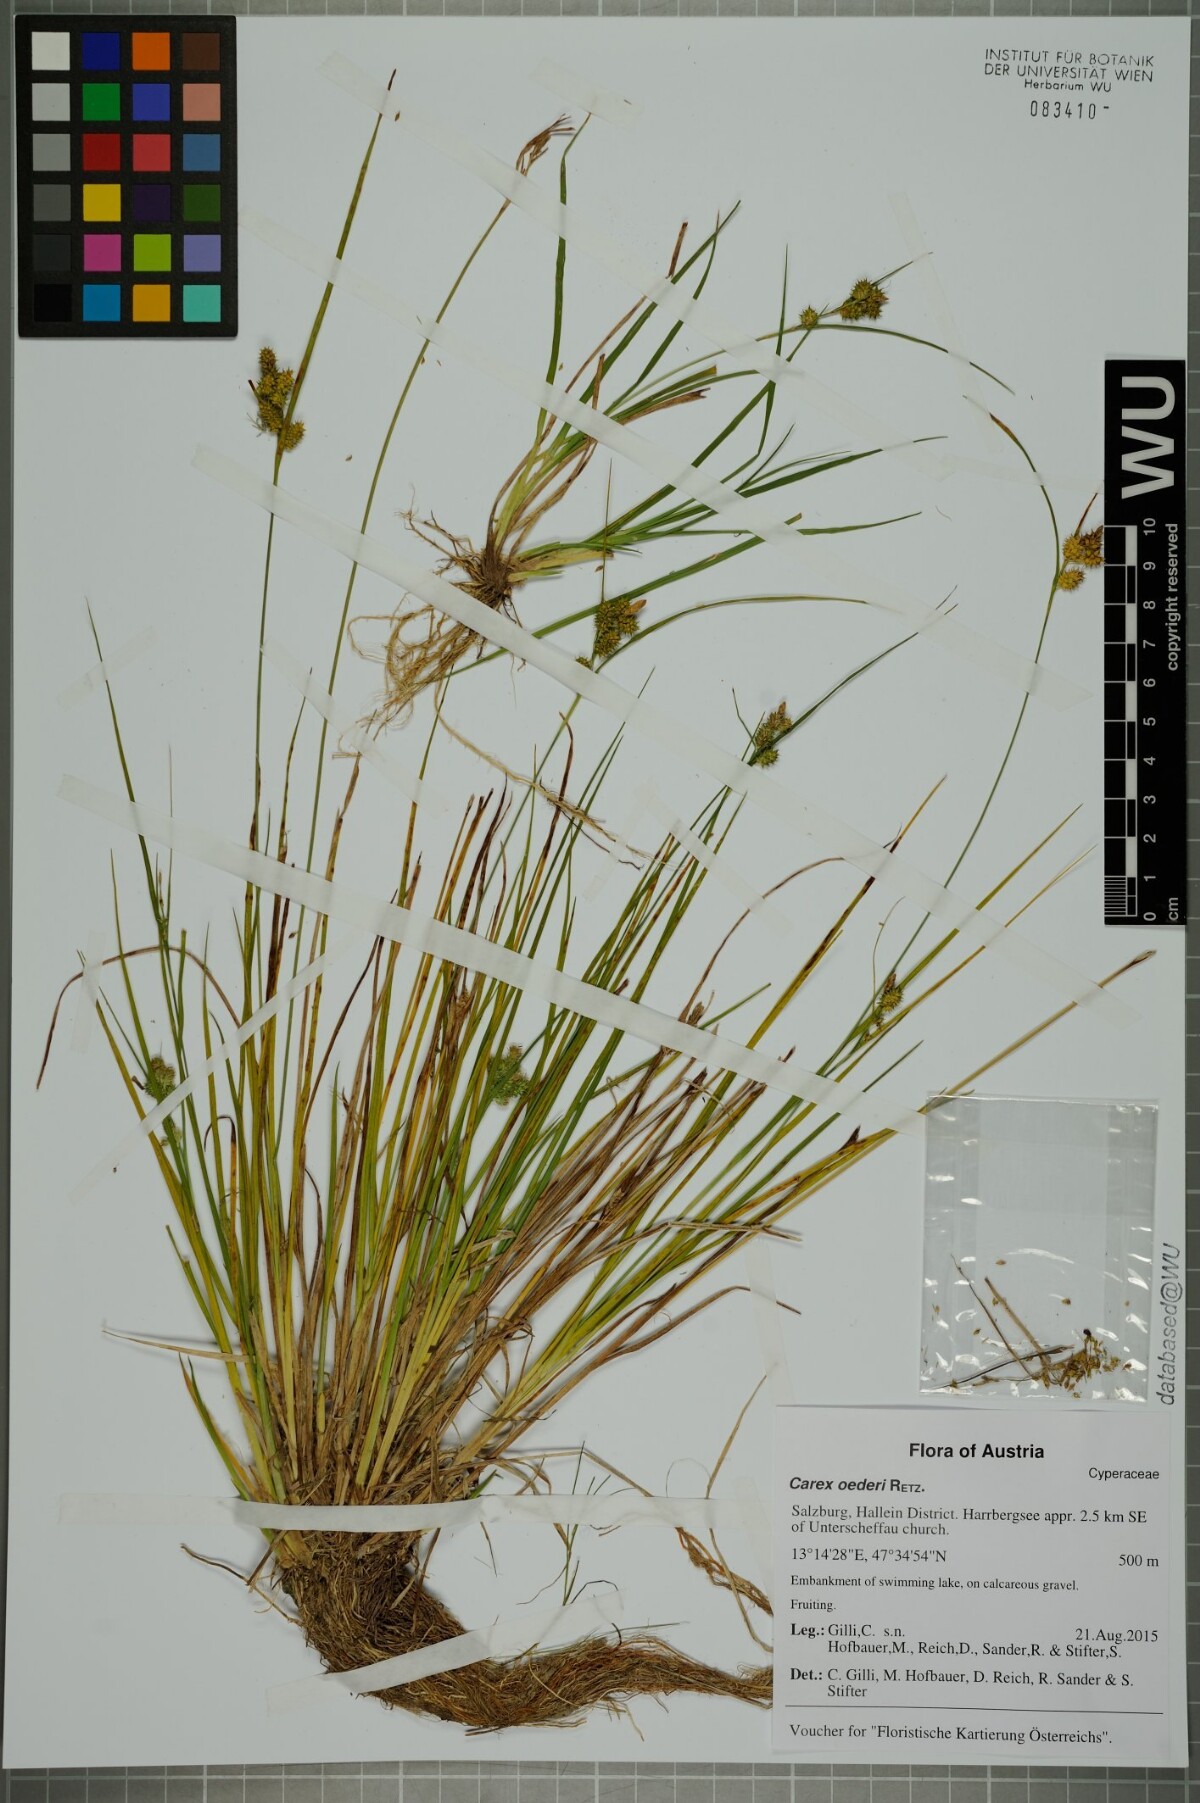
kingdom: Plantae
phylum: Tracheophyta
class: Liliopsida
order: Poales
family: Cyperaceae
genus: Carex
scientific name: Carex oederi
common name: Common & small-fruited yellow-sedge
